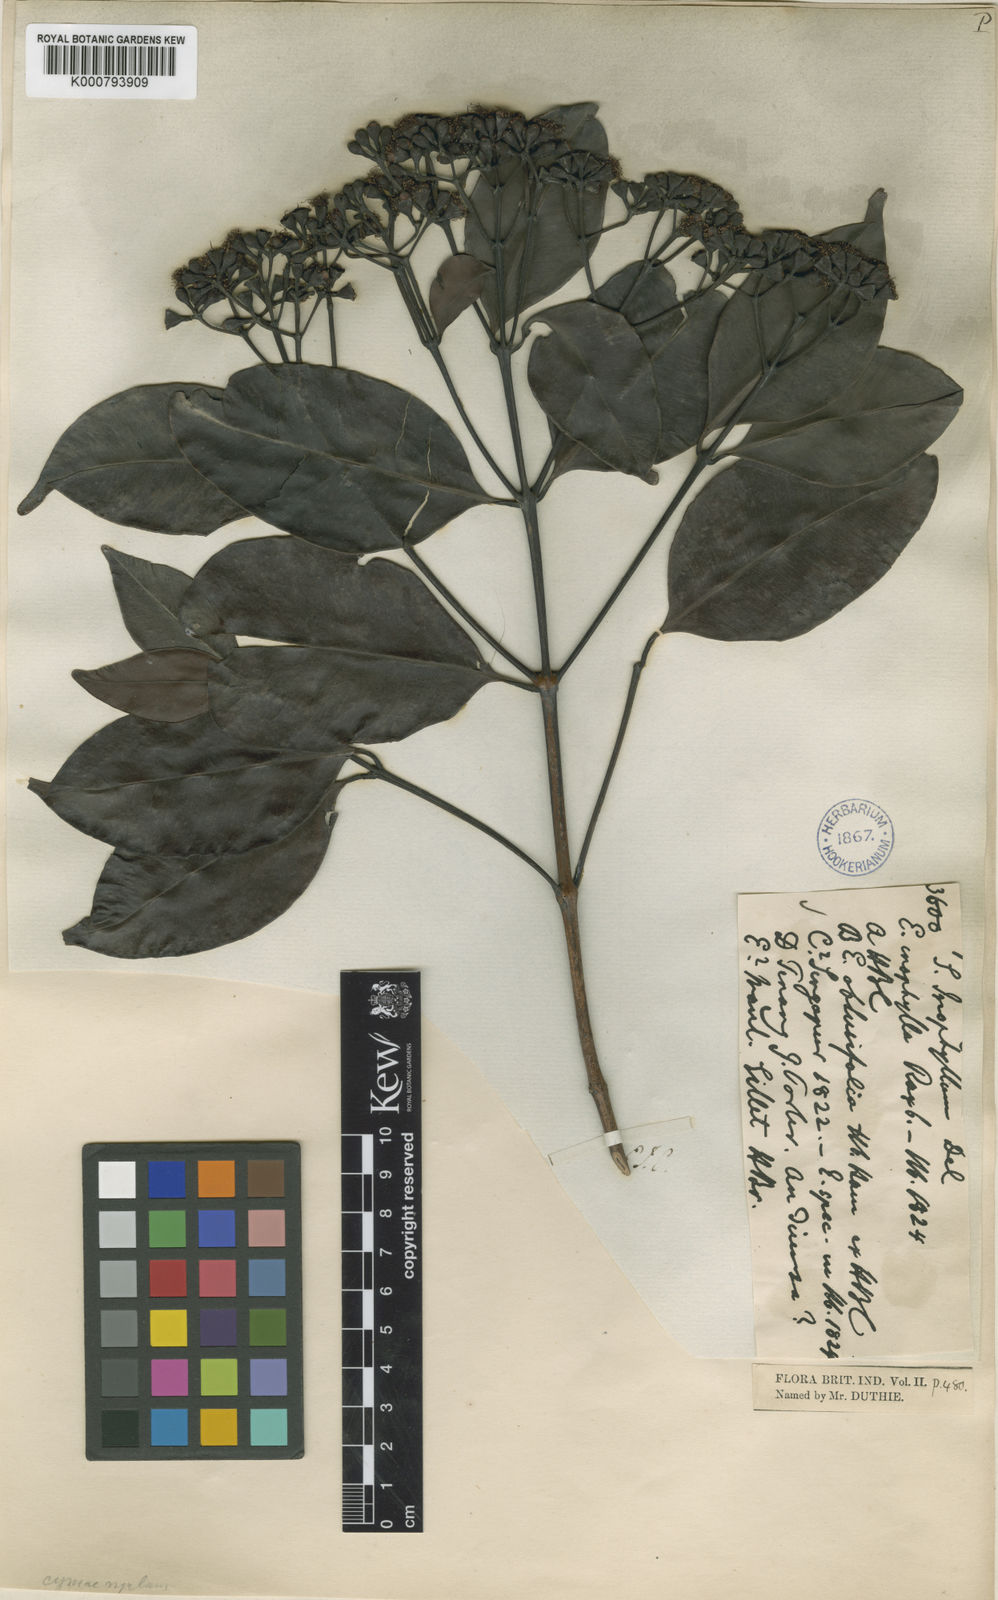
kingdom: Plantae
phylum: Tracheophyta
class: Magnoliopsida
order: Myrtales
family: Myrtaceae
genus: Syzygium
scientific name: Syzygium inophyllum
